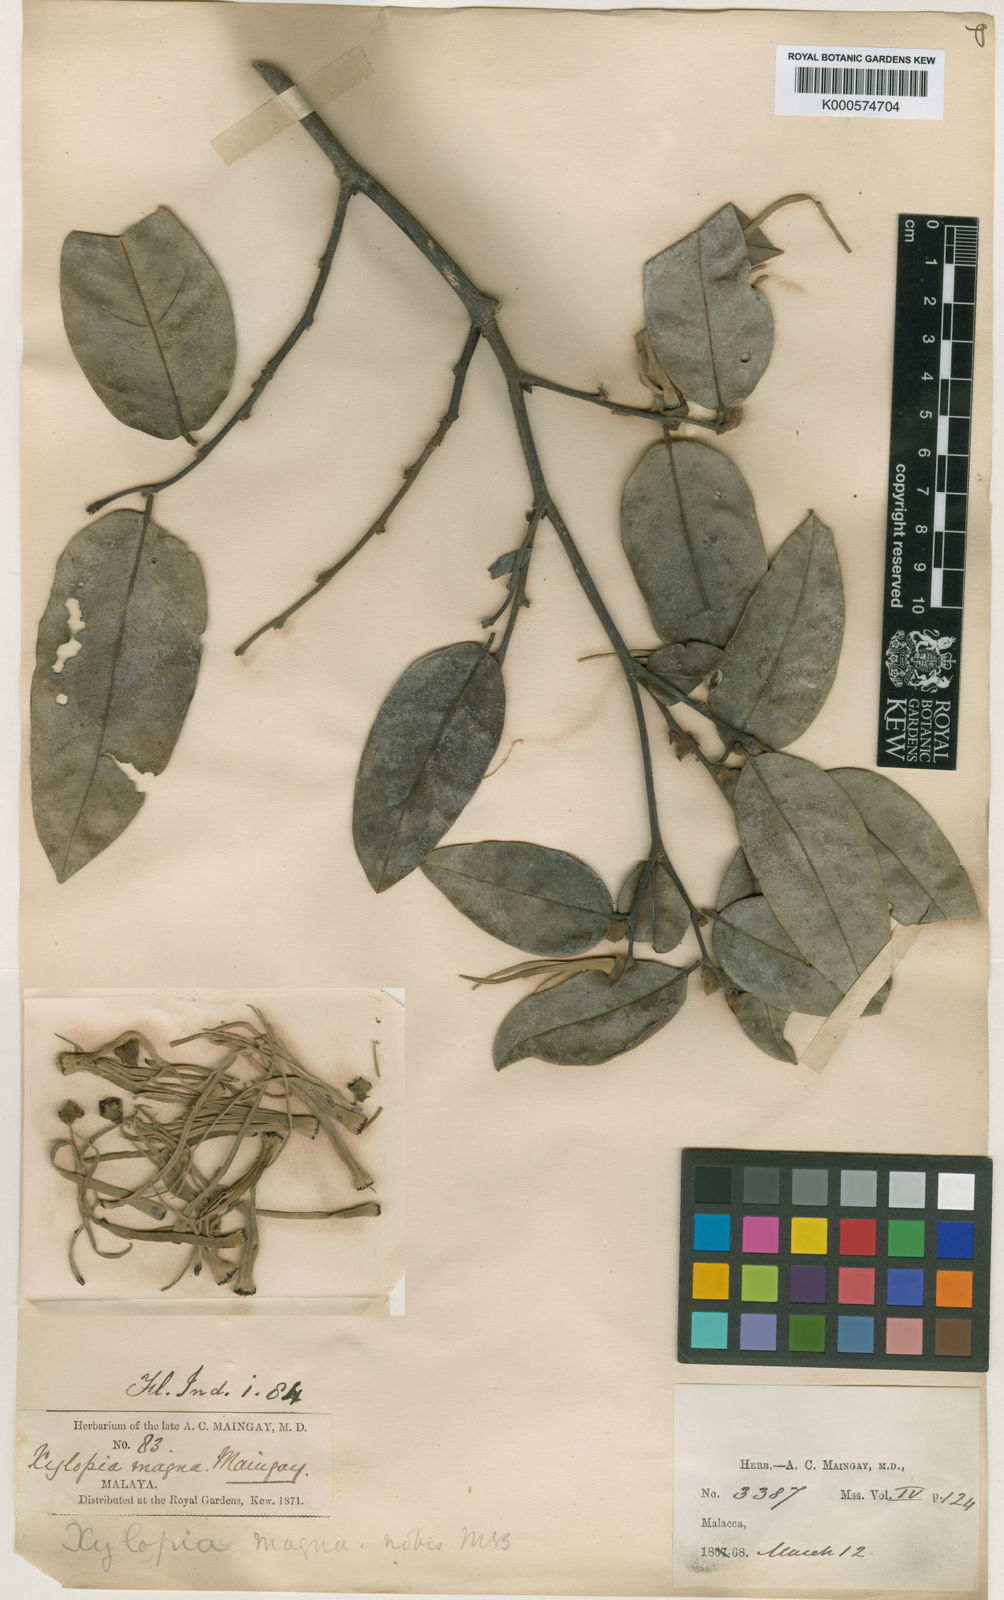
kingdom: Plantae
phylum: Tracheophyta
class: Magnoliopsida
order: Magnoliales
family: Annonaceae
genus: Xylopia
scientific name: Xylopia magna
